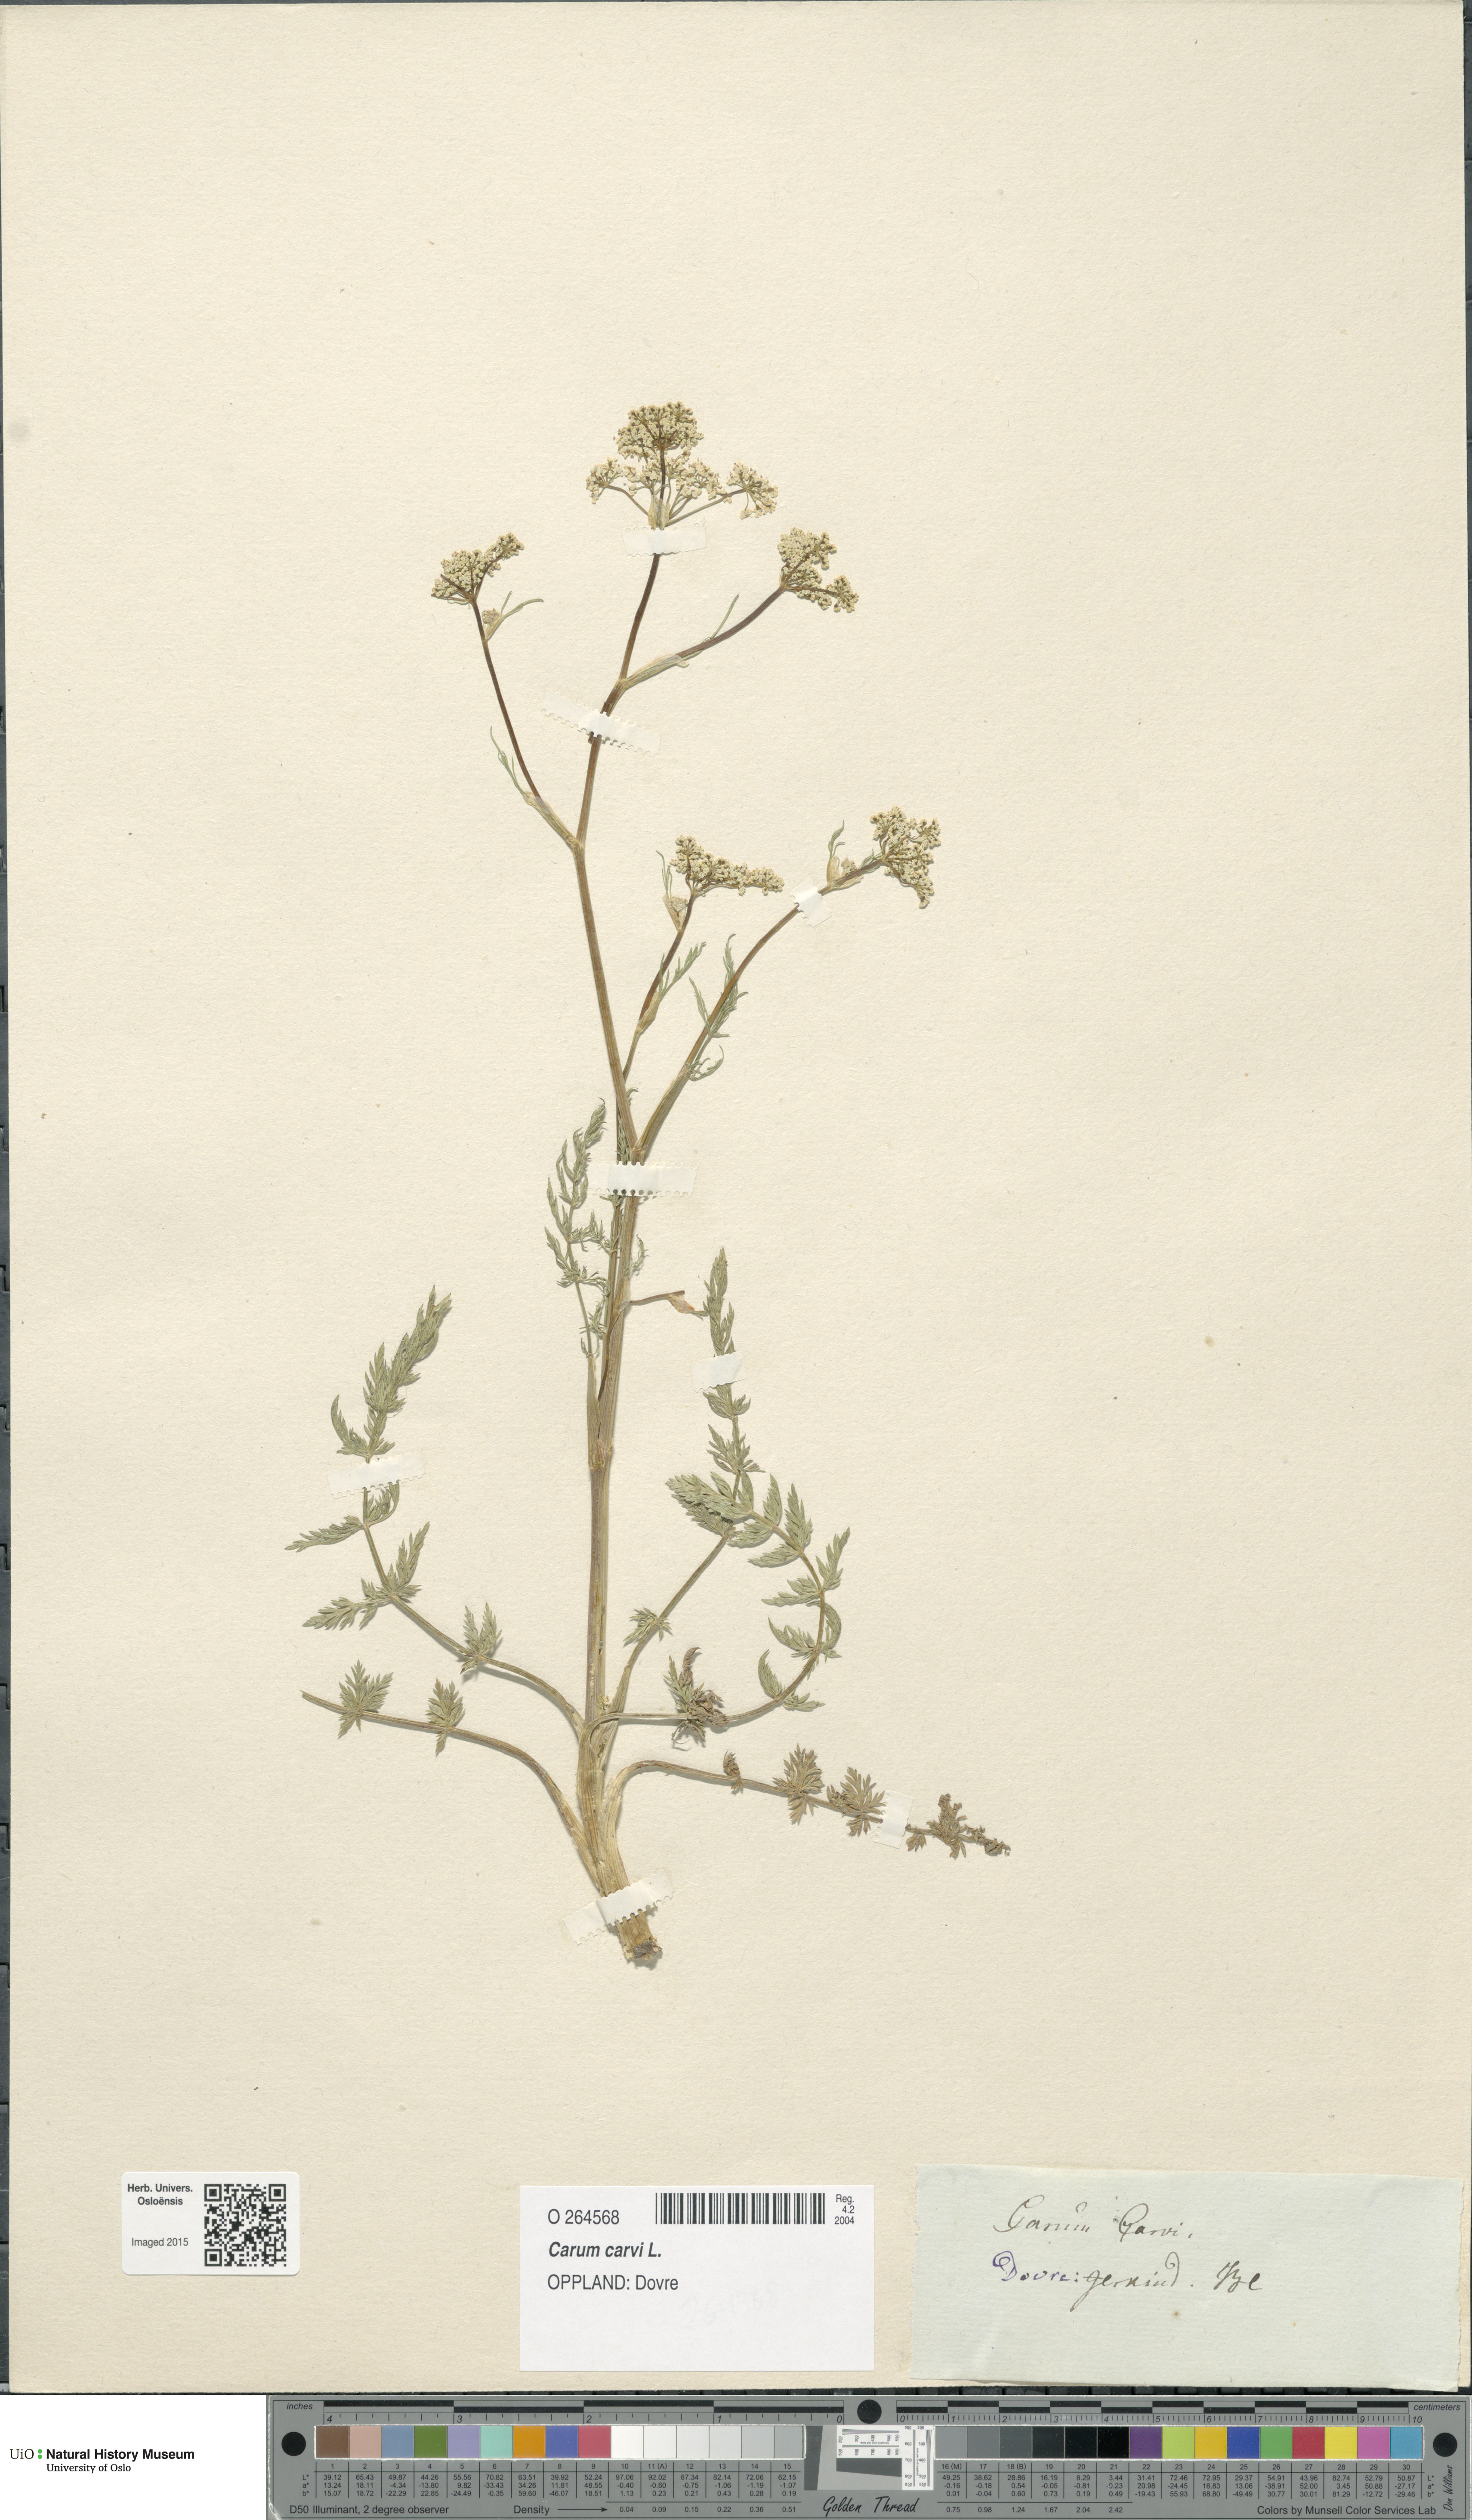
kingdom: Plantae
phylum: Tracheophyta
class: Magnoliopsida
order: Apiales
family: Apiaceae
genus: Carum
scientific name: Carum carvi
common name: Caraway
